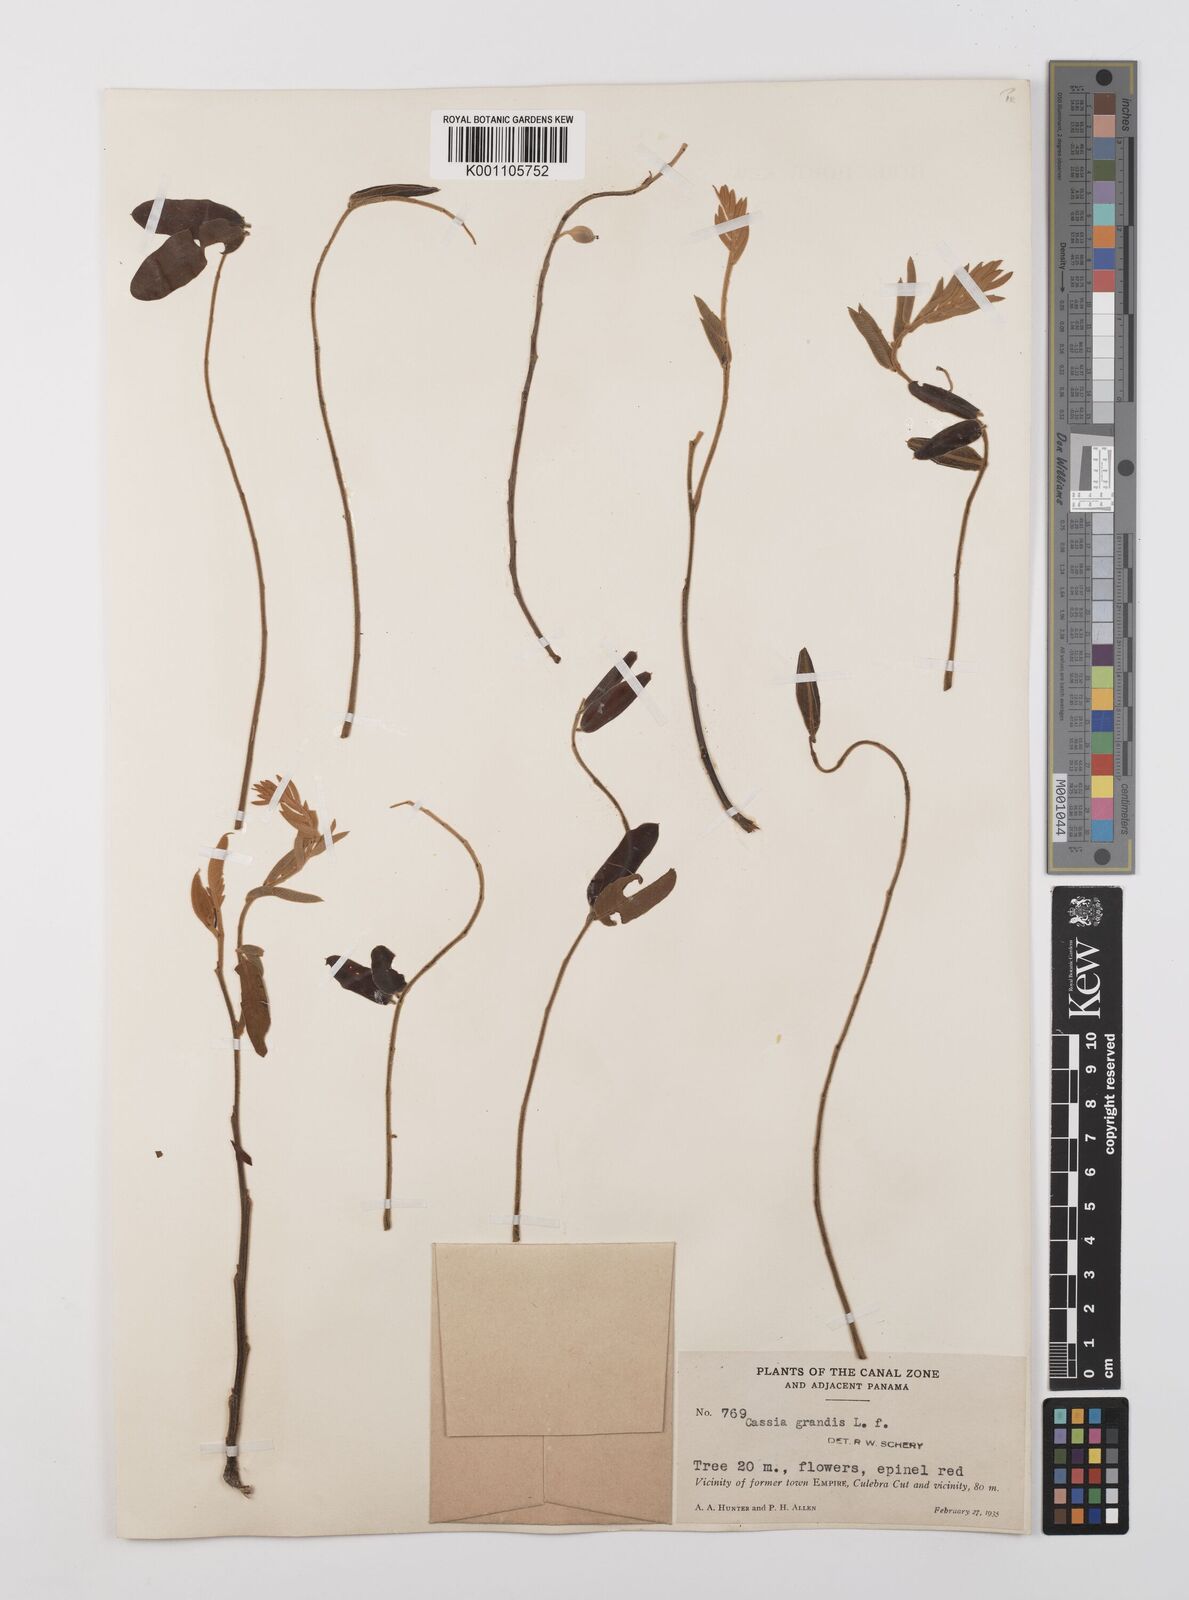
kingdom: Plantae
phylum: Tracheophyta
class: Magnoliopsida
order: Fabales
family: Fabaceae
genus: Cassia
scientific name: Cassia grandis
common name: Appleblossom cassia
